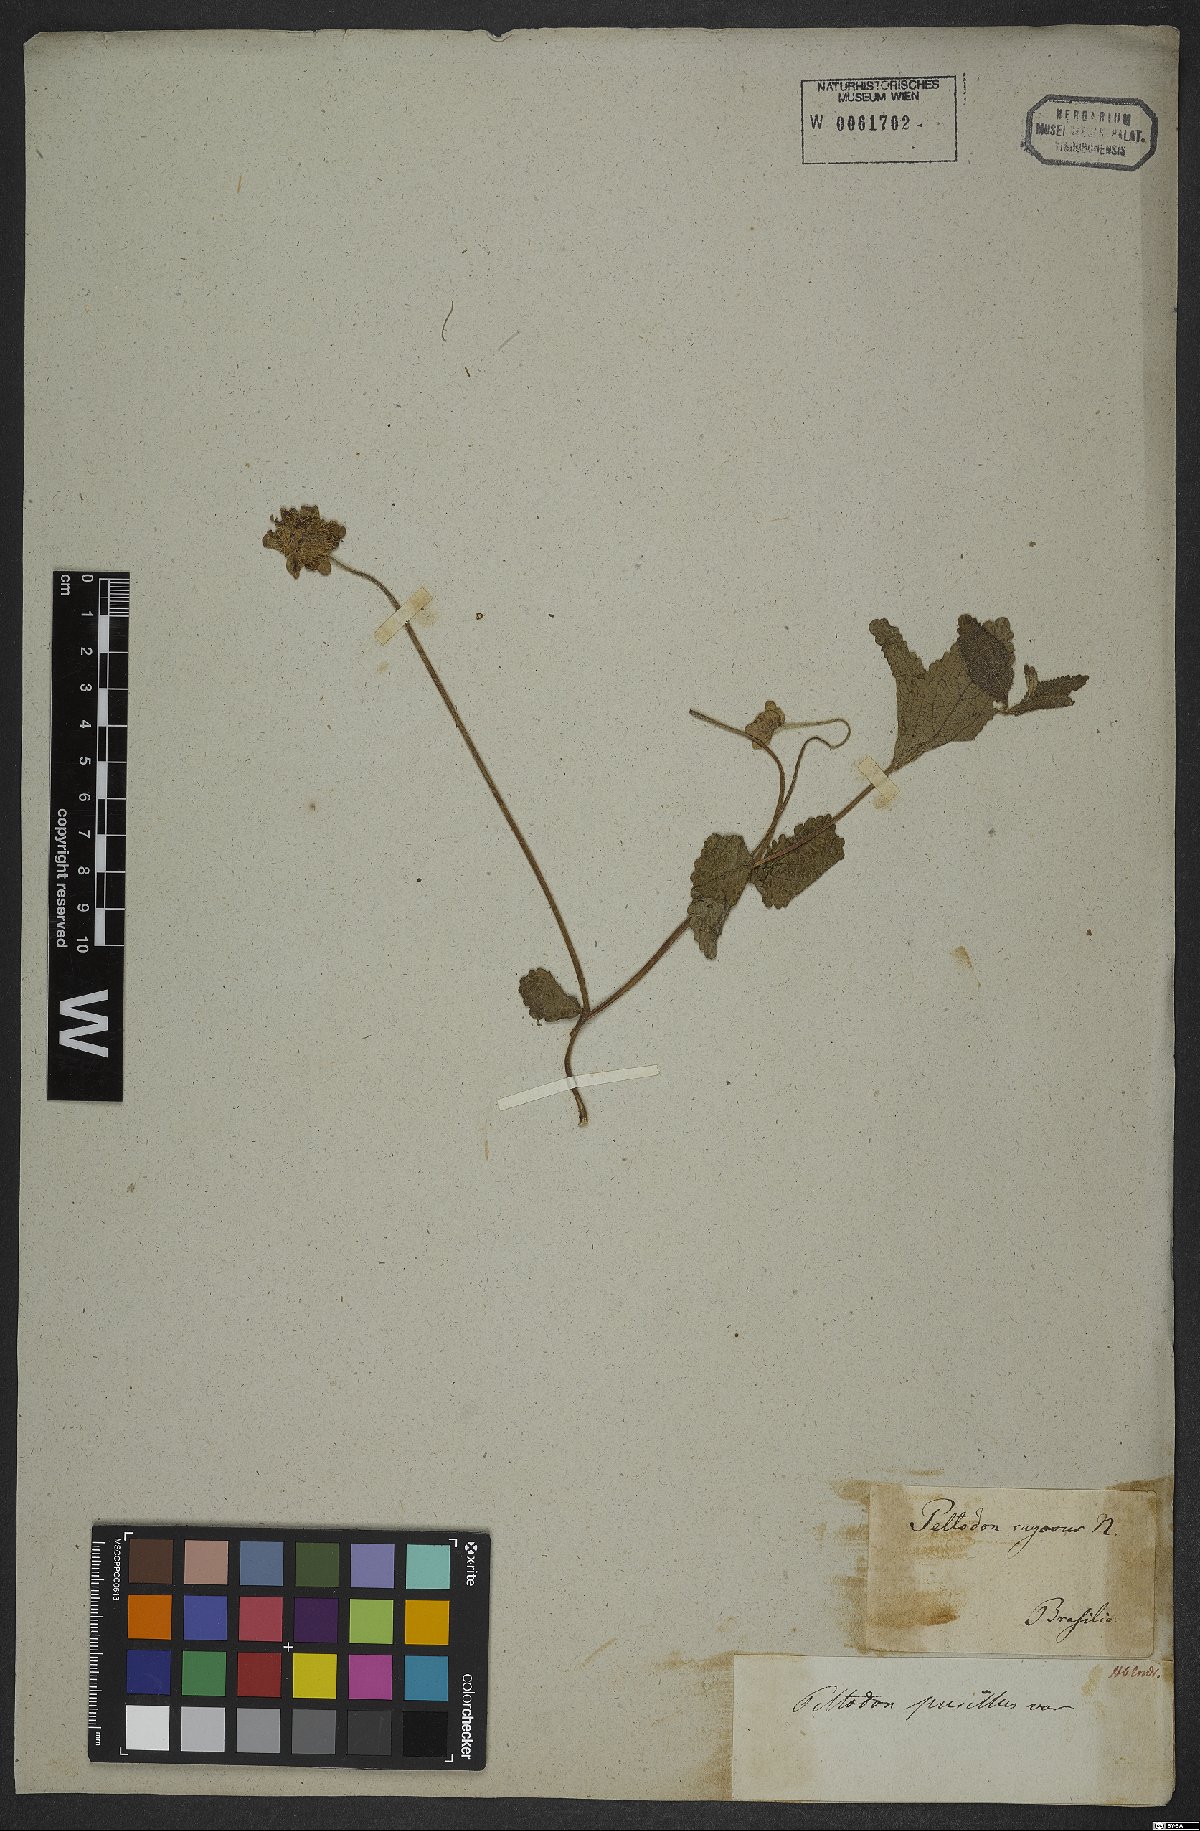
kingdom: Plantae
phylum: Tracheophyta
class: Magnoliopsida
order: Lamiales
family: Lamiaceae
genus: Hyptis
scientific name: Hyptis pusilla
